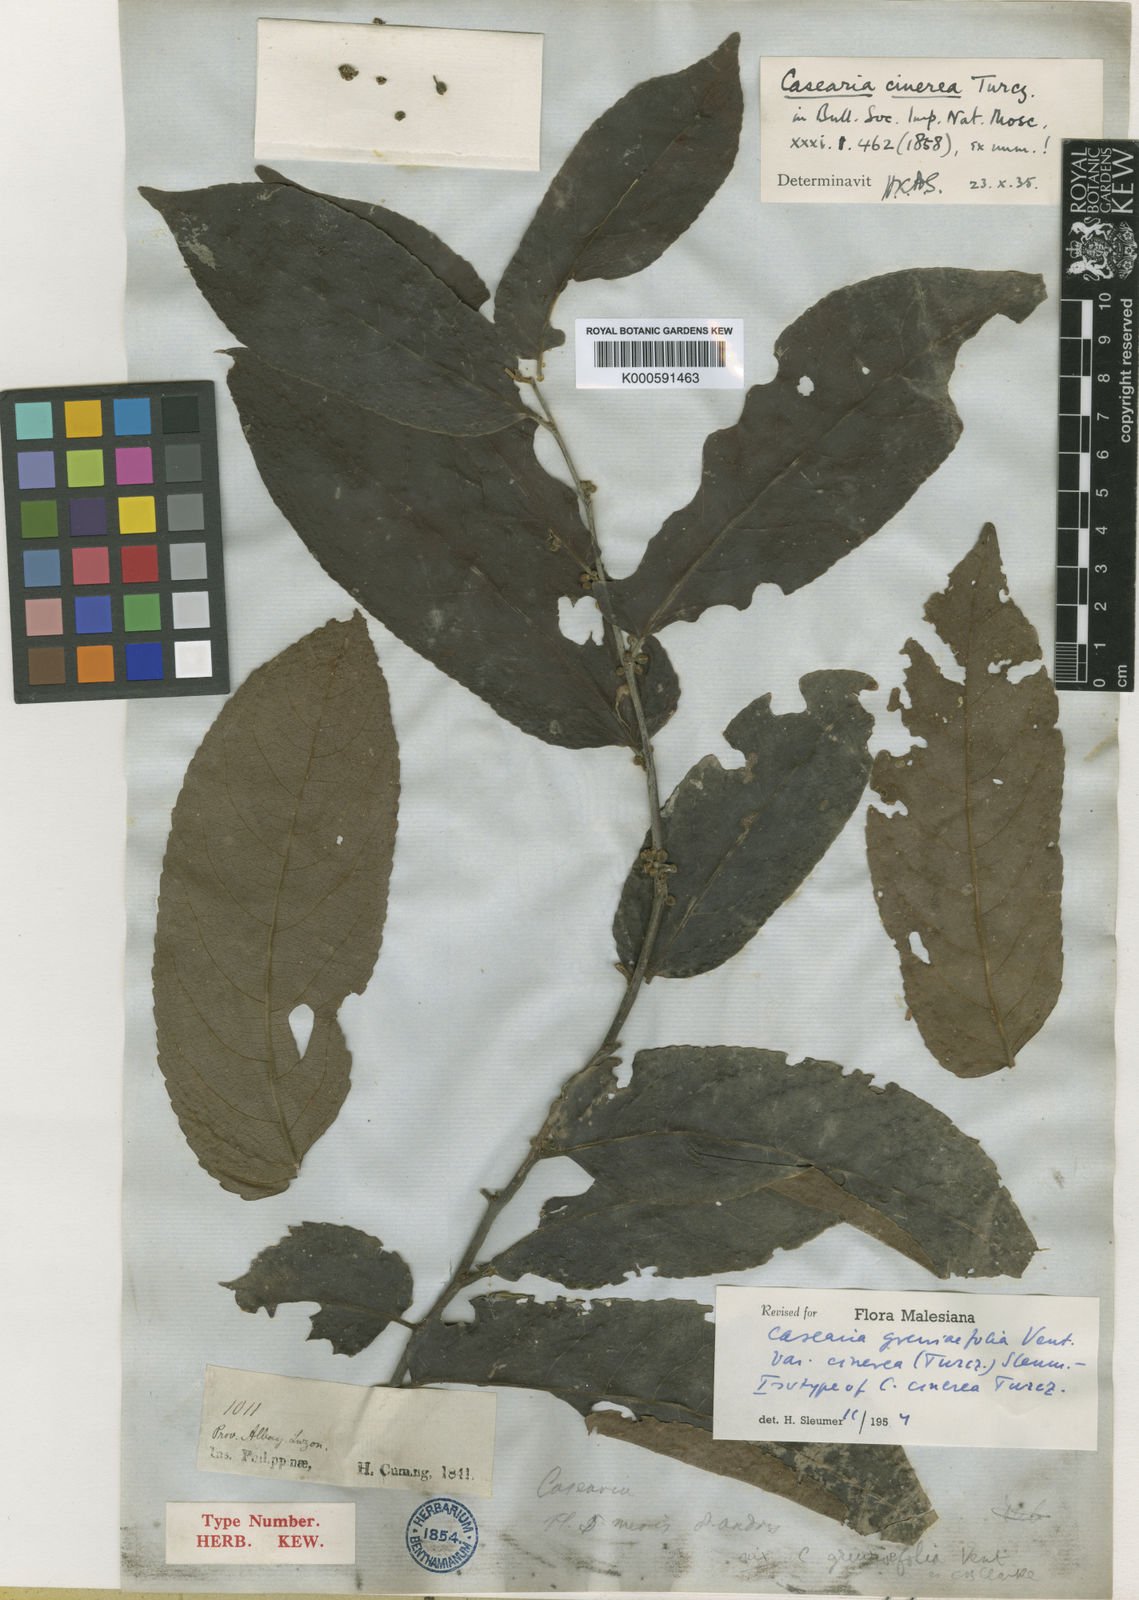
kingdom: Plantae
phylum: Tracheophyta
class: Magnoliopsida
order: Malpighiales
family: Salicaceae
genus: Casearia
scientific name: Casearia grewiifolia
